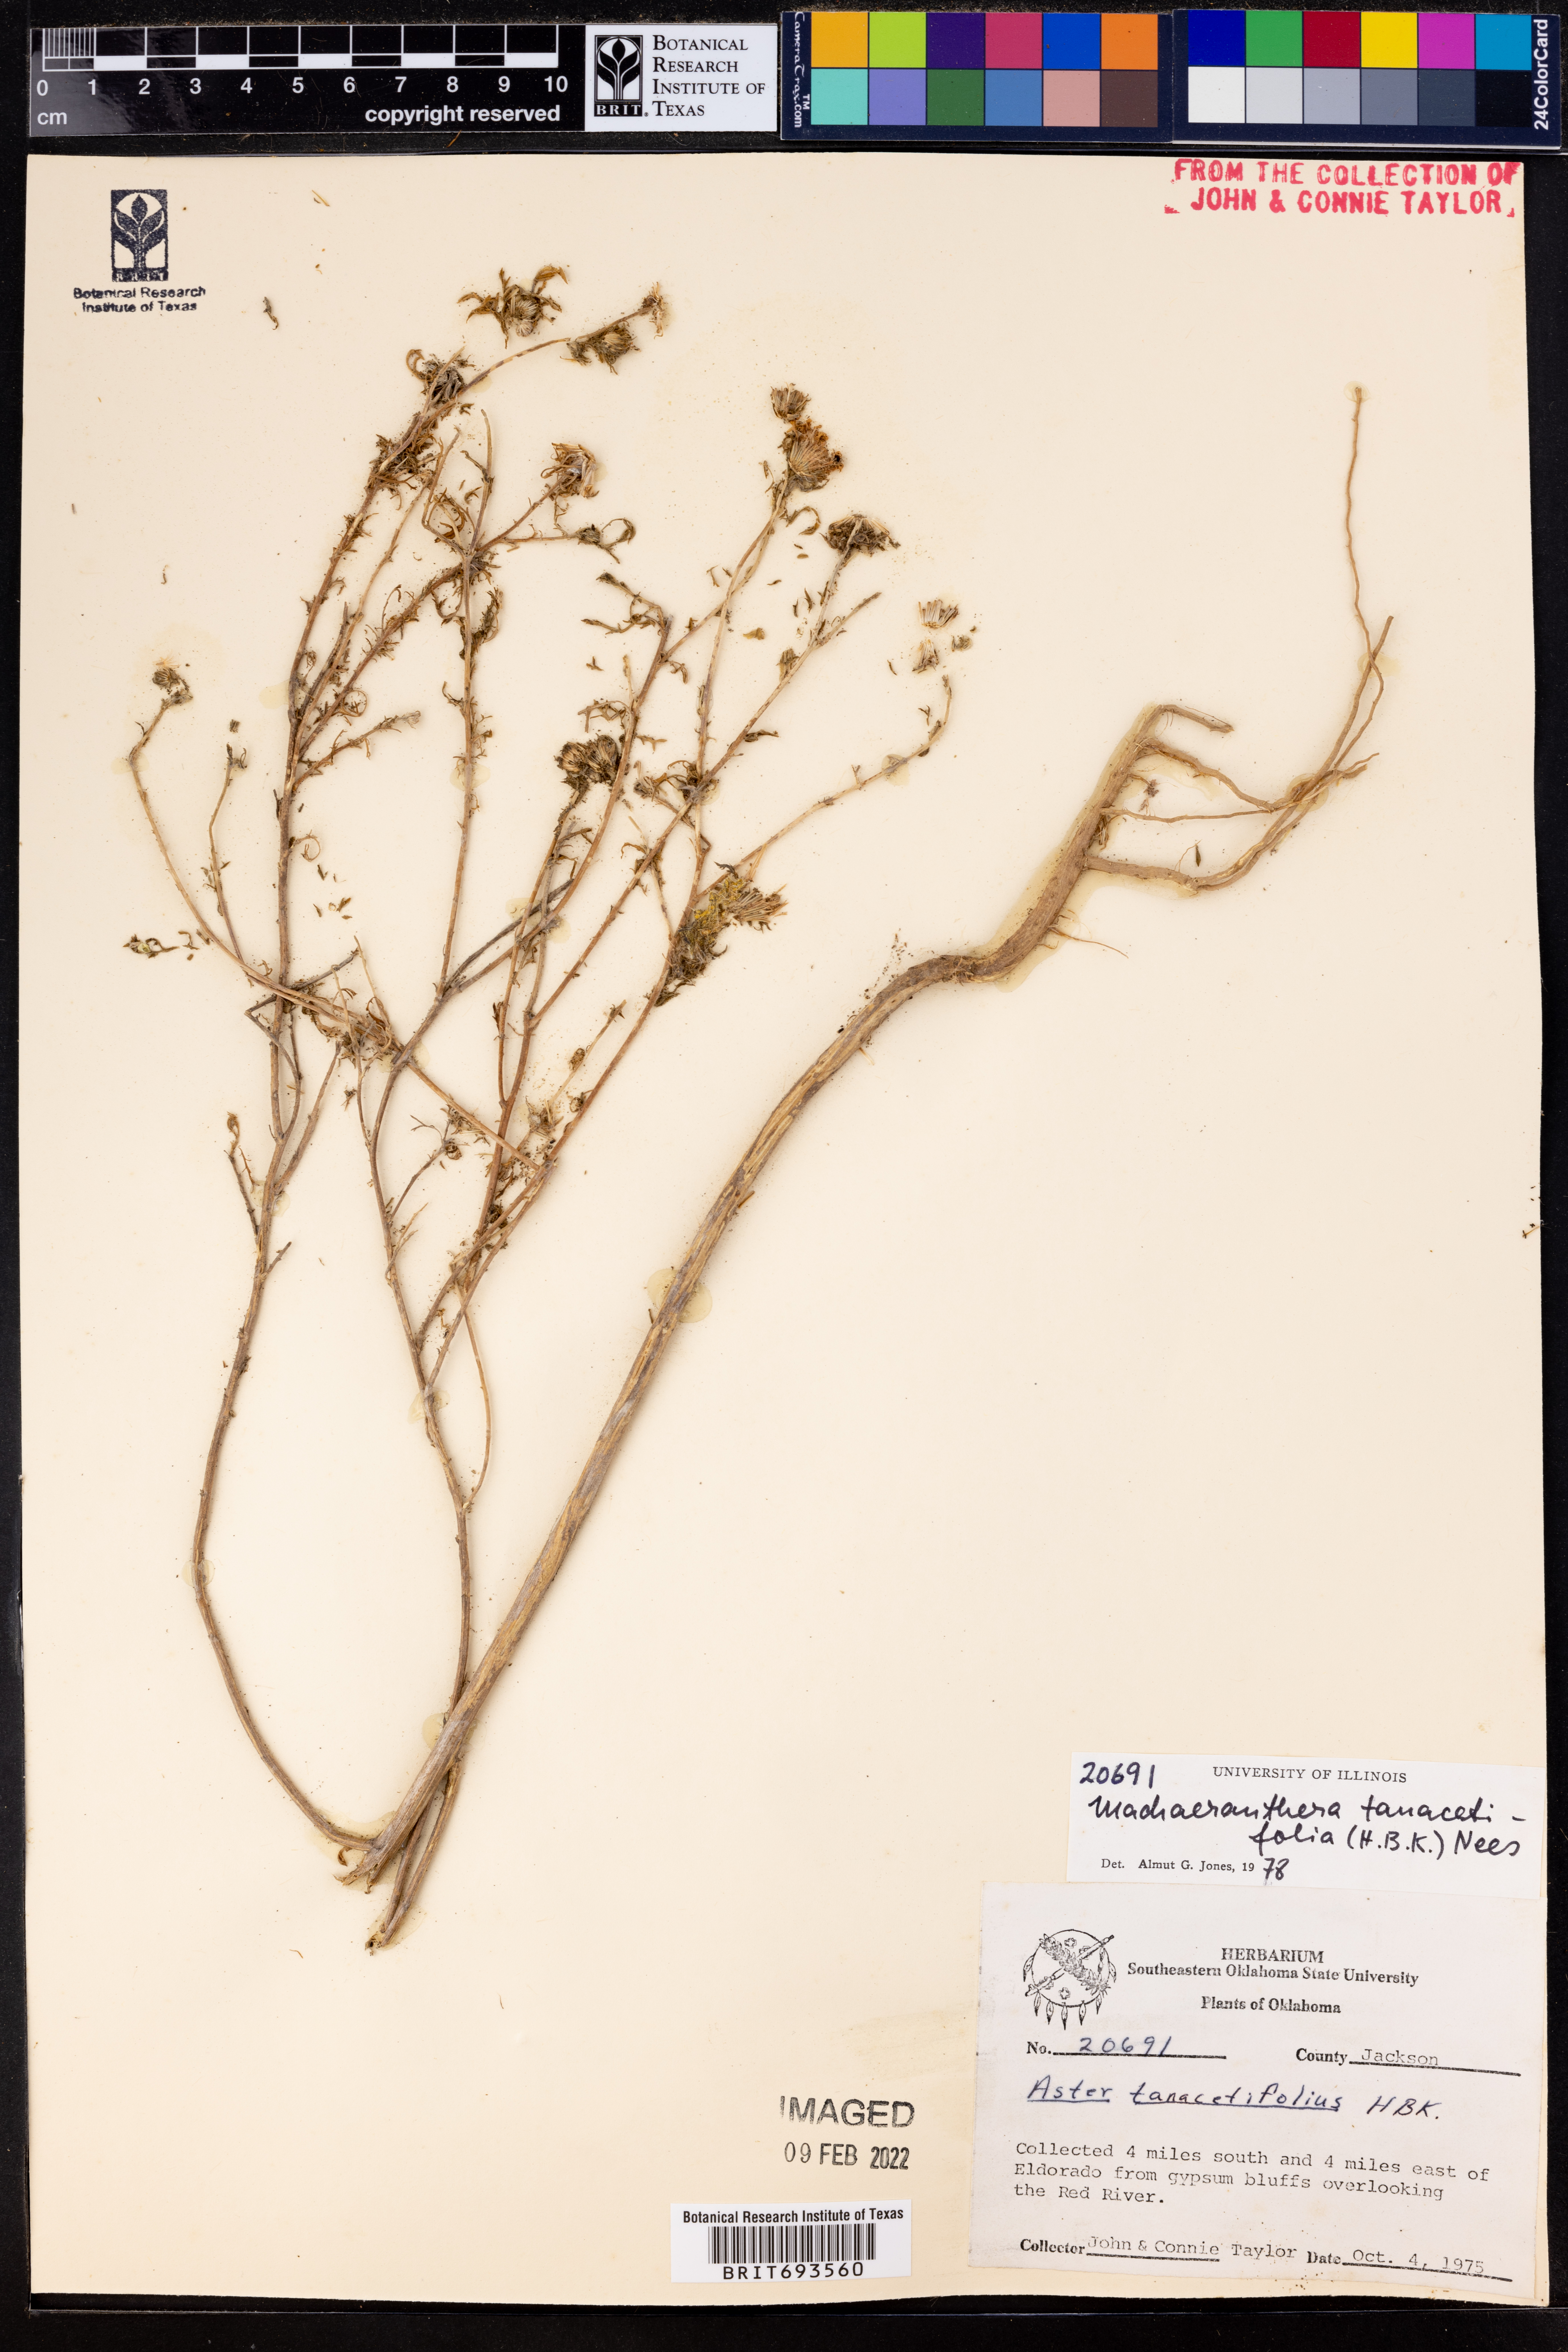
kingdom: Plantae
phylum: Tracheophyta
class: Magnoliopsida
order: Asterales
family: Asteraceae
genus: Machaeranthera
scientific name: Machaeranthera tanacetifolia
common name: Tansy-aster
